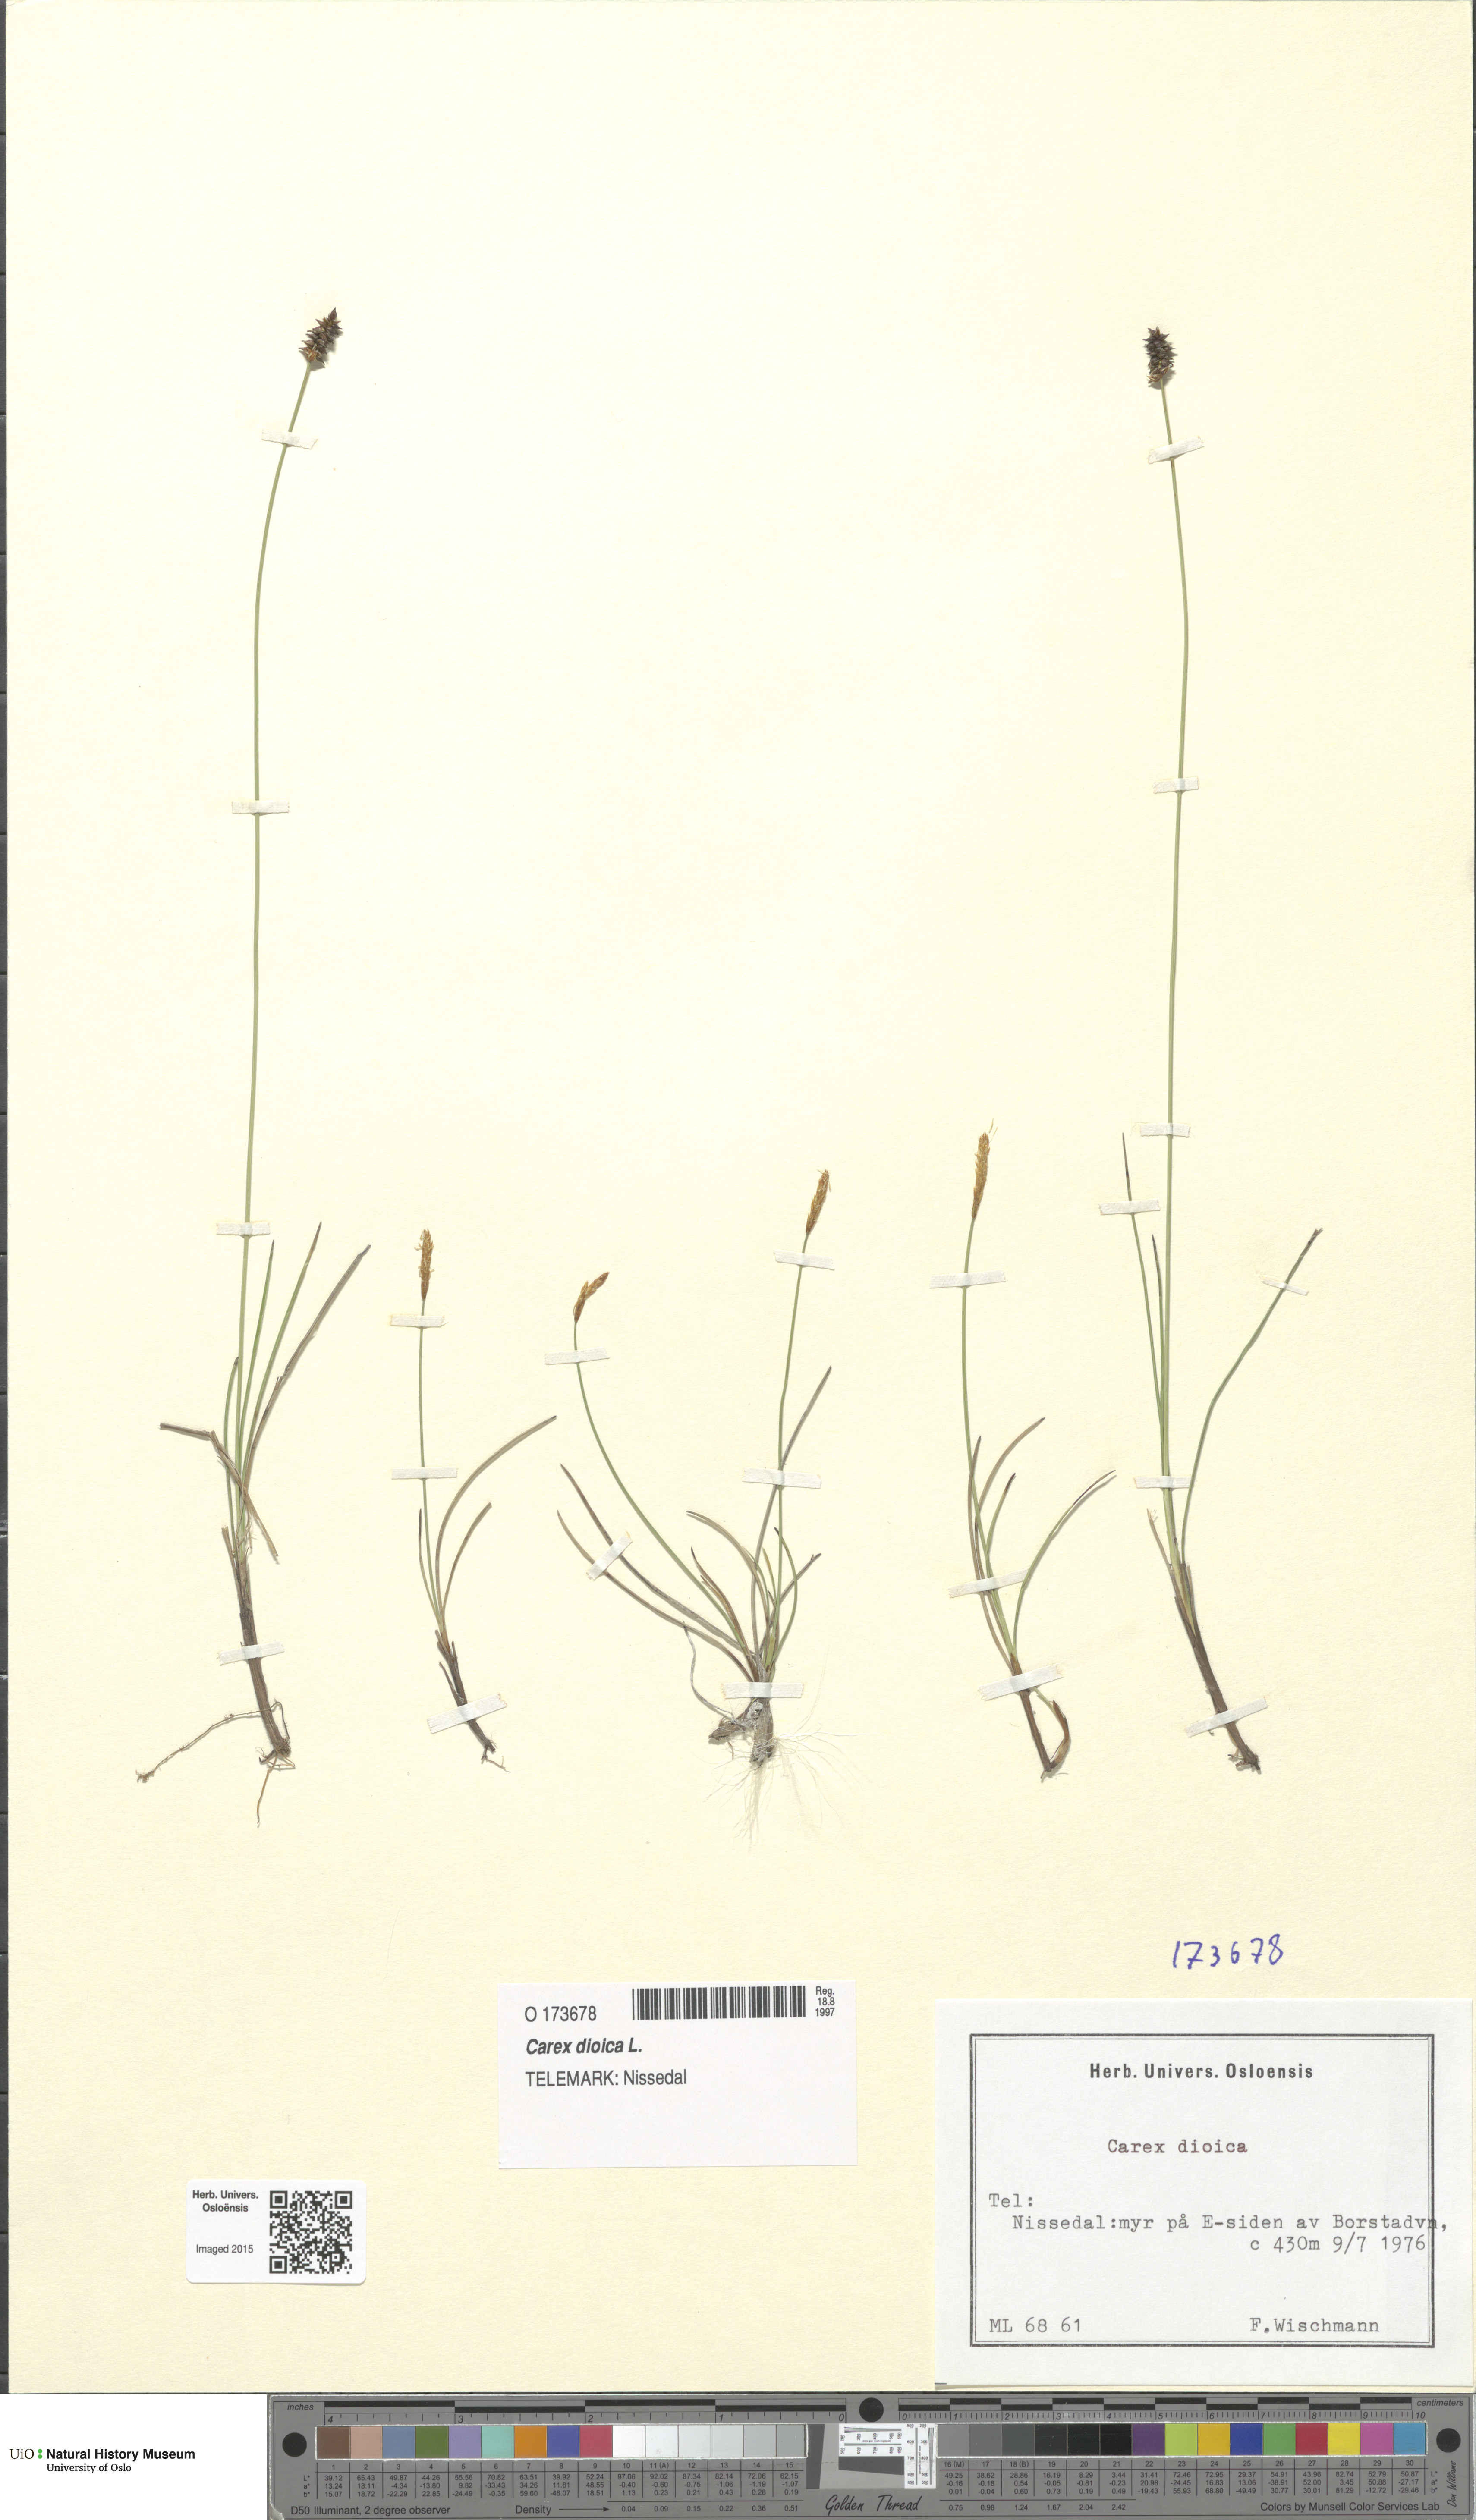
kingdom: Plantae
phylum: Tracheophyta
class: Liliopsida
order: Poales
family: Cyperaceae
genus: Carex
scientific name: Carex dioica
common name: Dioecious sedge
